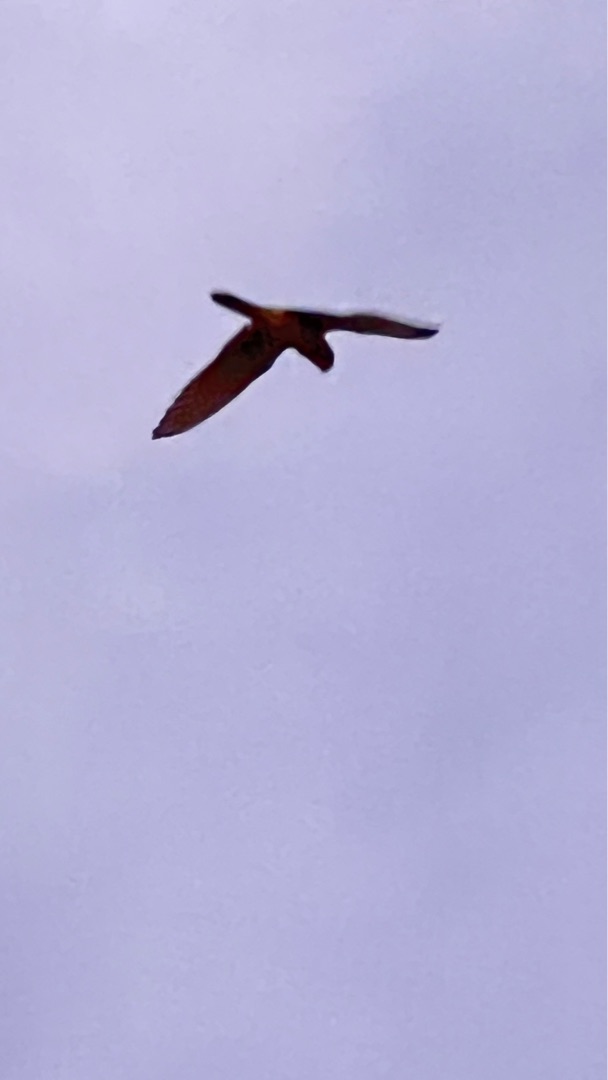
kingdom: Animalia
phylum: Chordata
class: Aves
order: Falconiformes
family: Falconidae
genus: Falco
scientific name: Falco tinnunculus
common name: Tårnfalk
